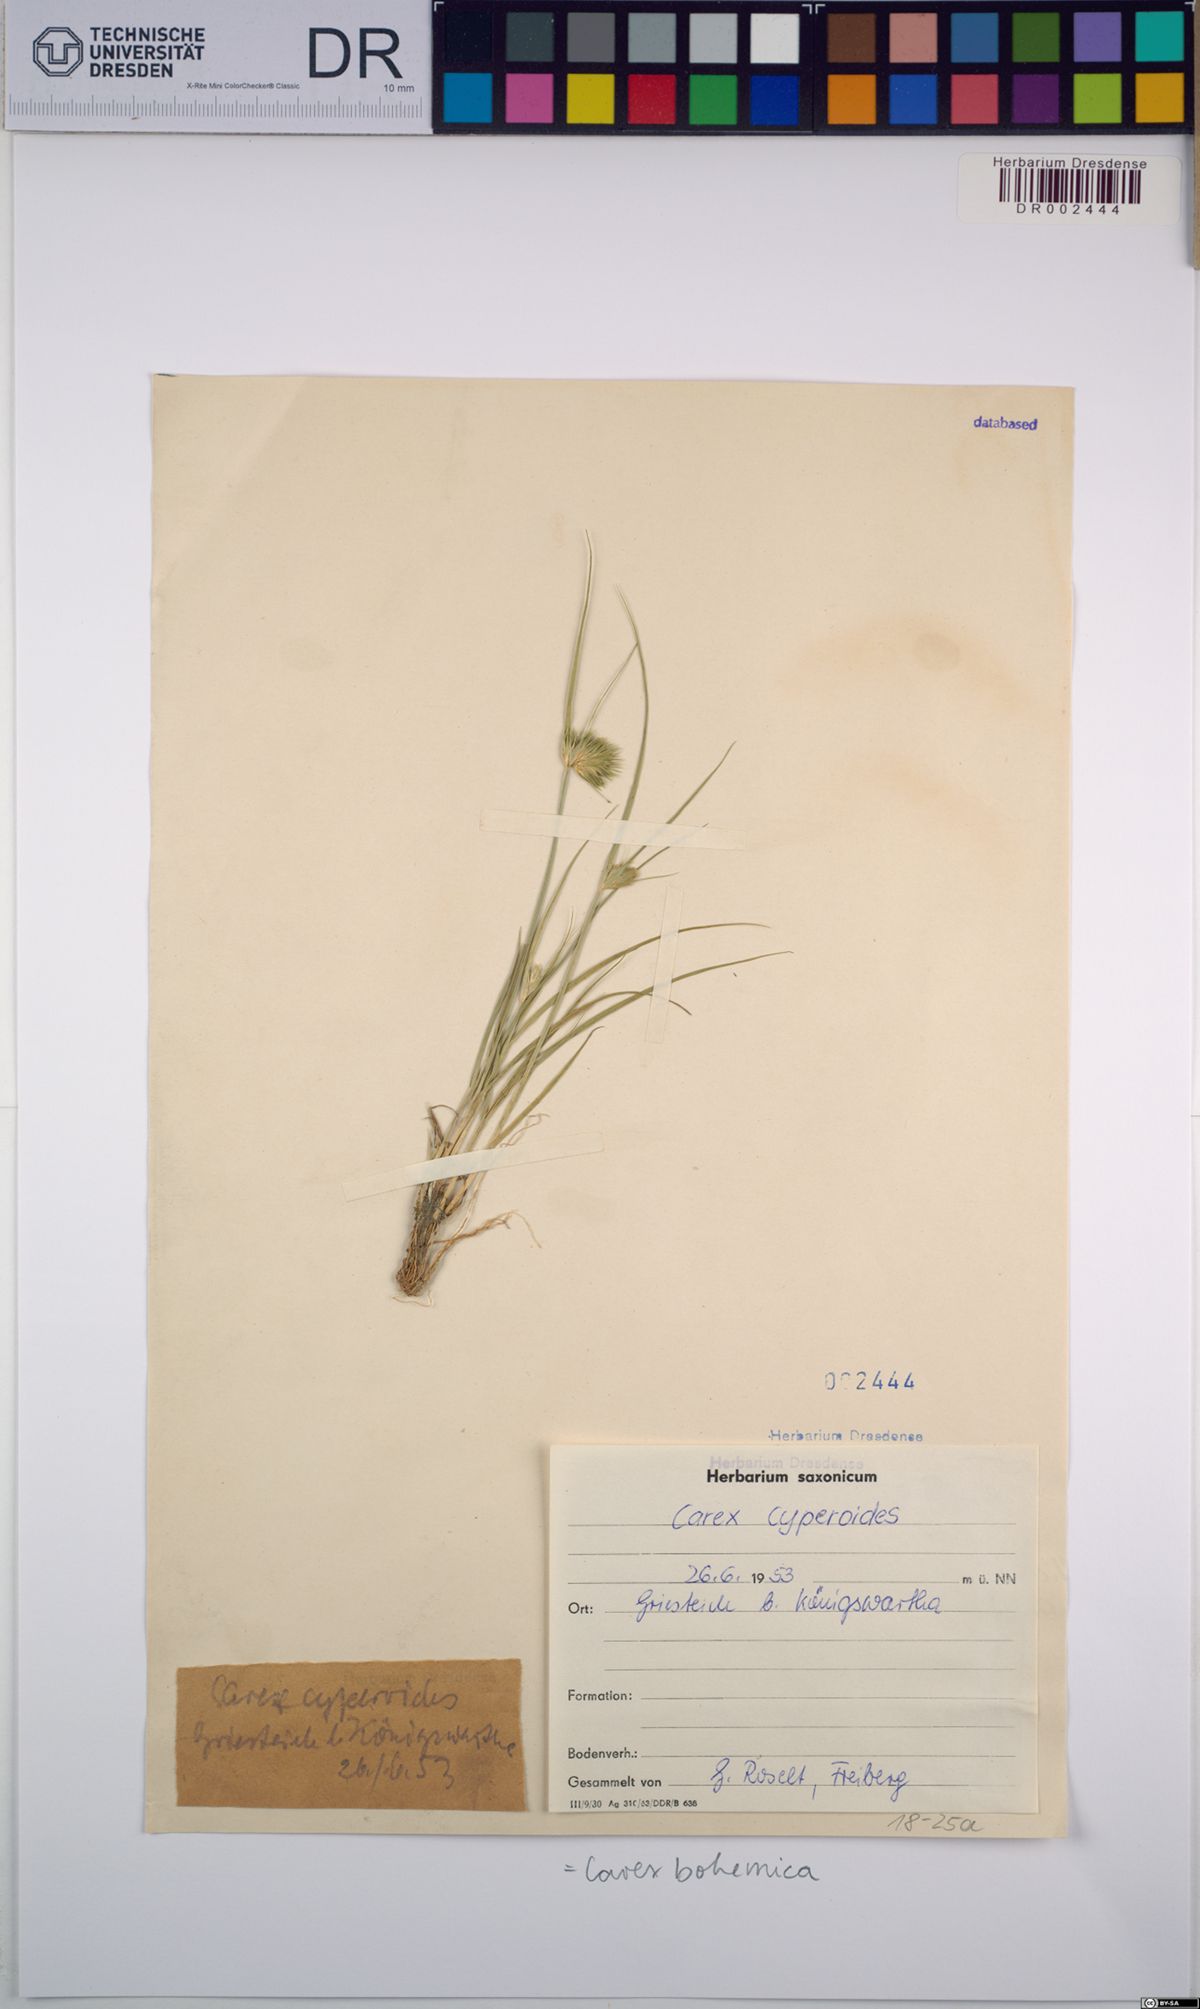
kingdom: Plantae
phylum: Tracheophyta
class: Liliopsida
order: Poales
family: Cyperaceae
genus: Carex
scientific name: Carex bohemica
